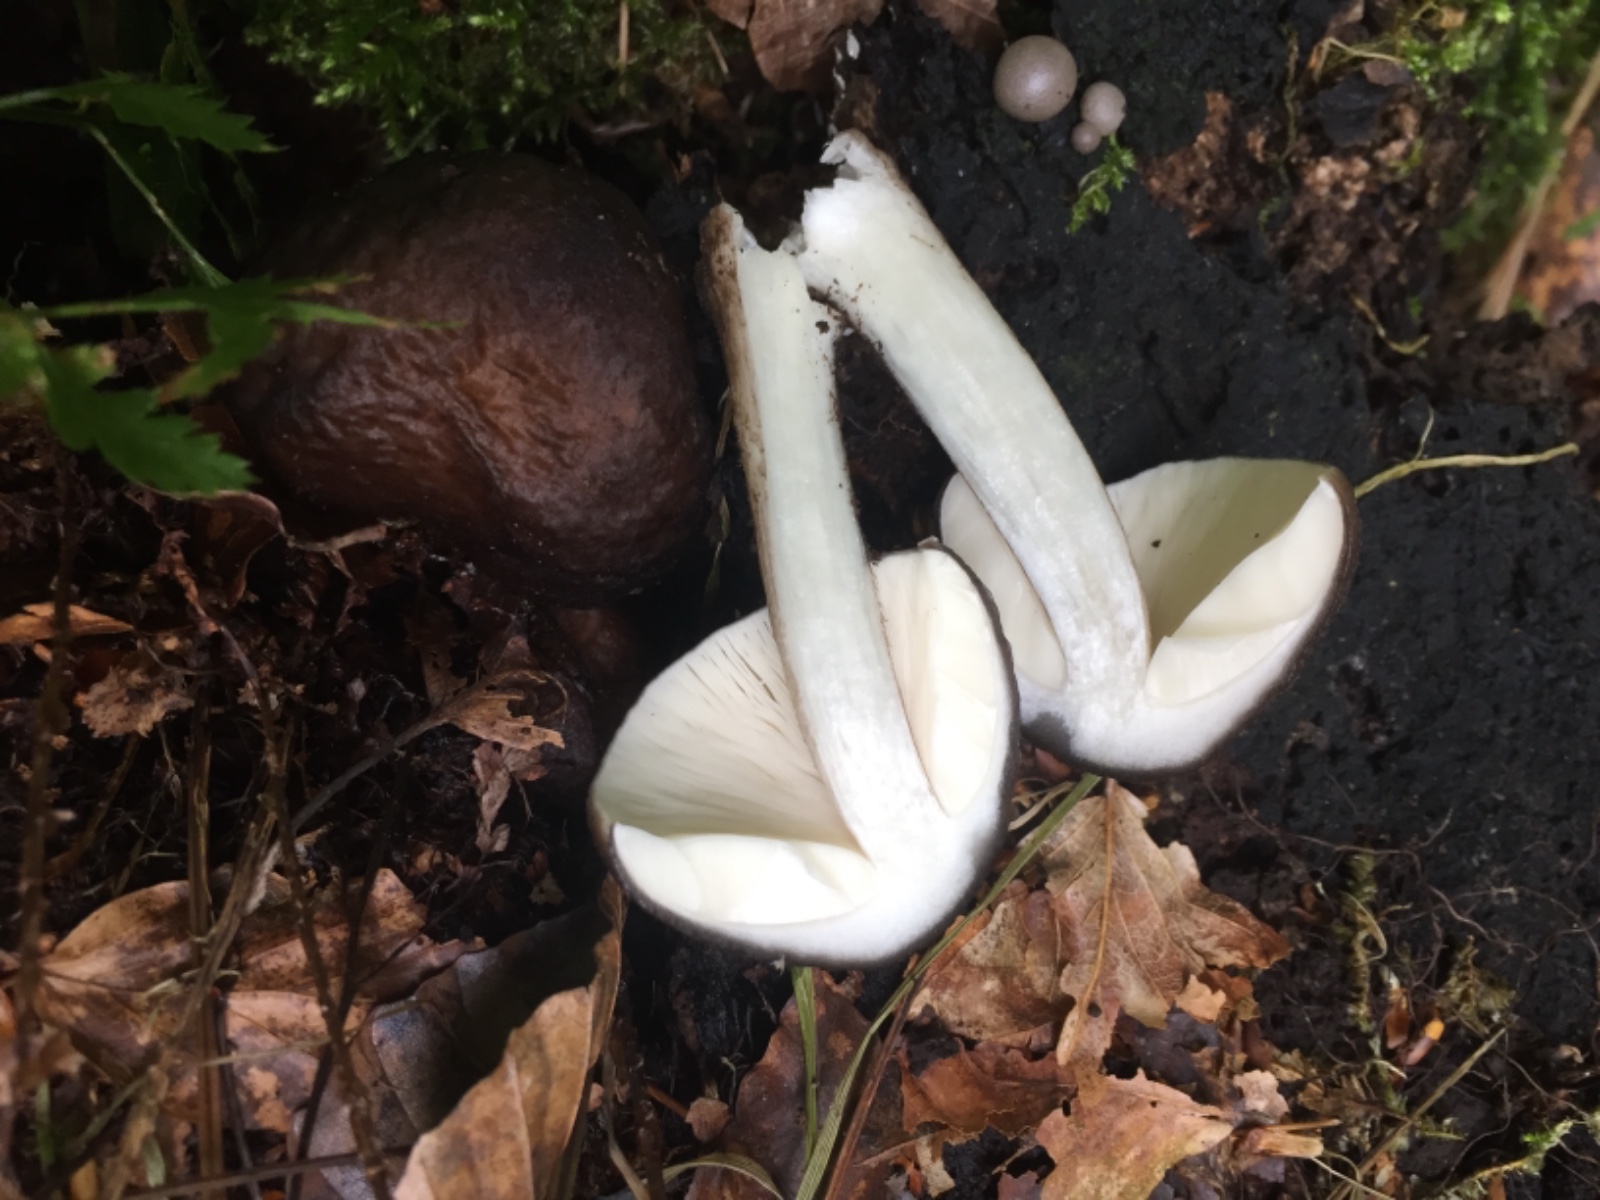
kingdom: Fungi
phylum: Basidiomycota
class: Agaricomycetes
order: Agaricales
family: Pluteaceae
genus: Pluteus
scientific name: Pluteus cervinus
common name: sodfarvet skærmhat
